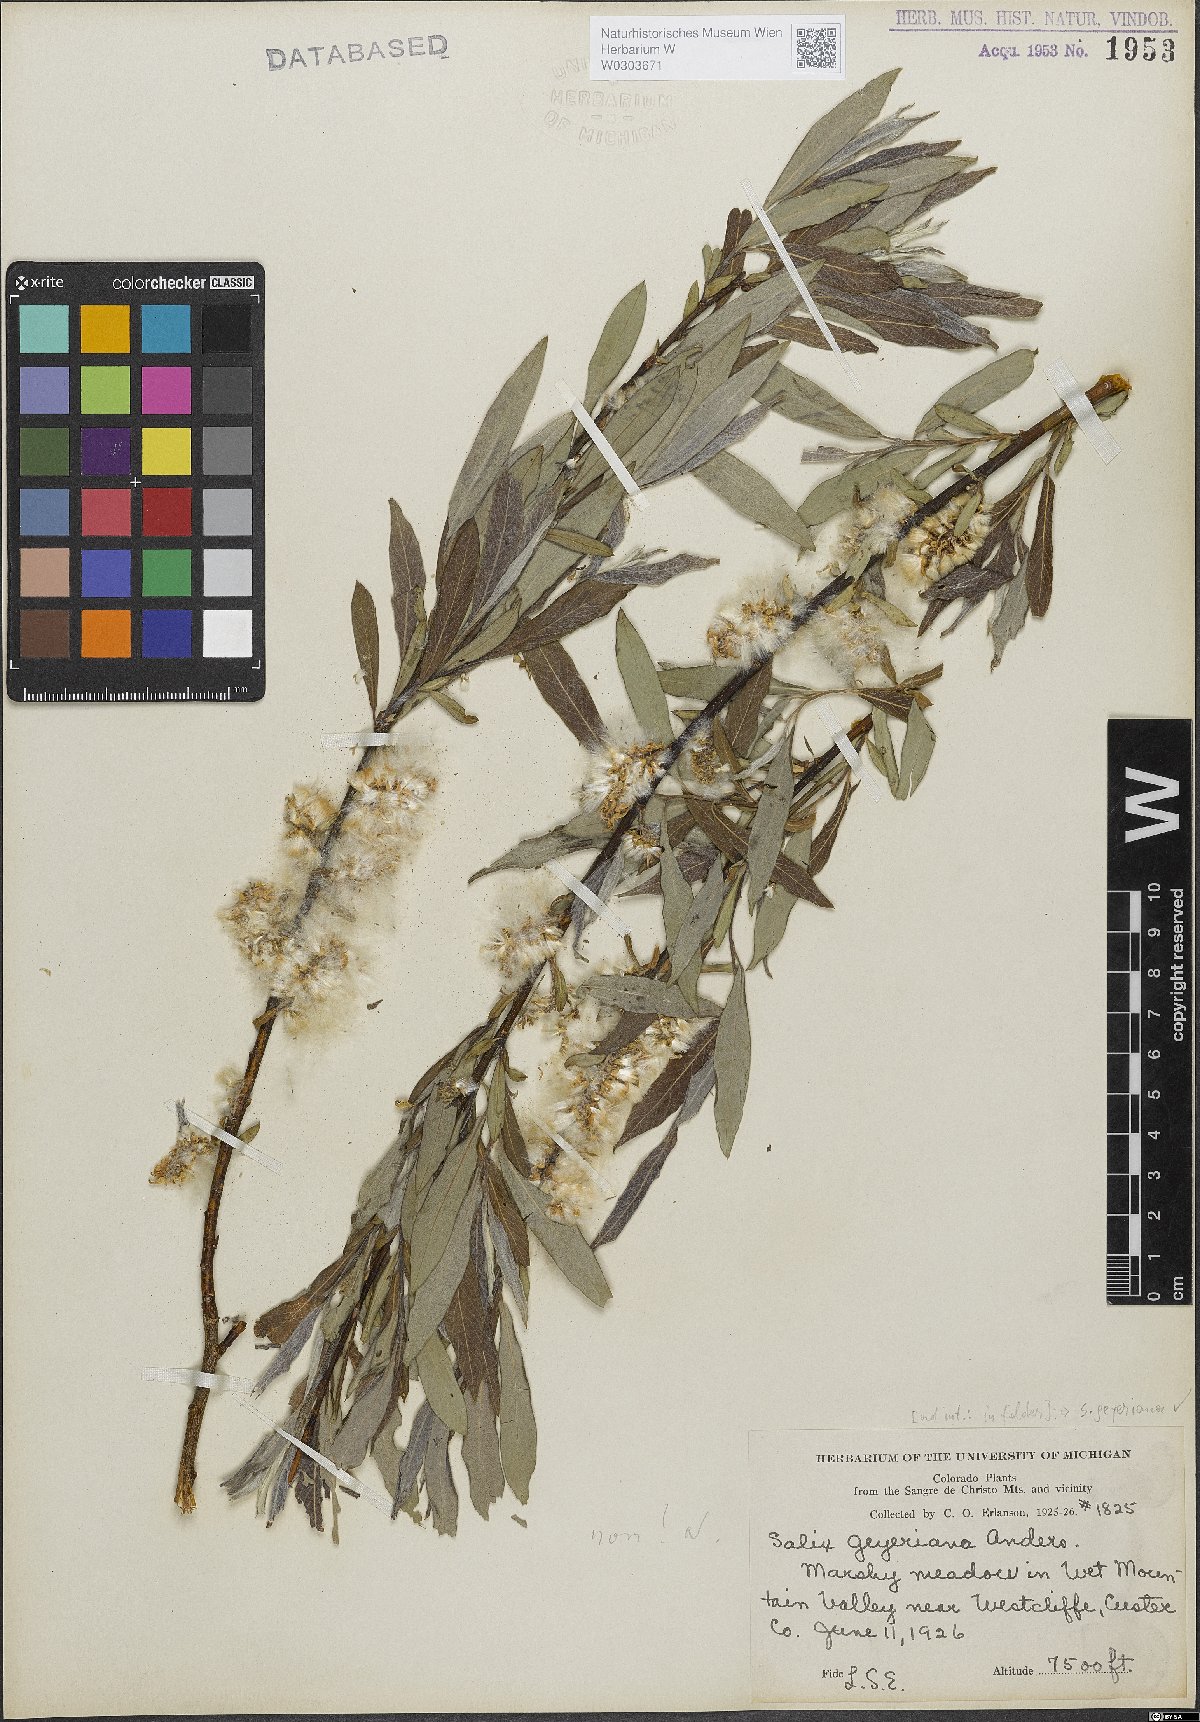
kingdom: Plantae
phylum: Tracheophyta
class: Magnoliopsida
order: Malpighiales
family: Salicaceae
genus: Salix
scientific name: Salix geyeriana
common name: Geyer's willow
